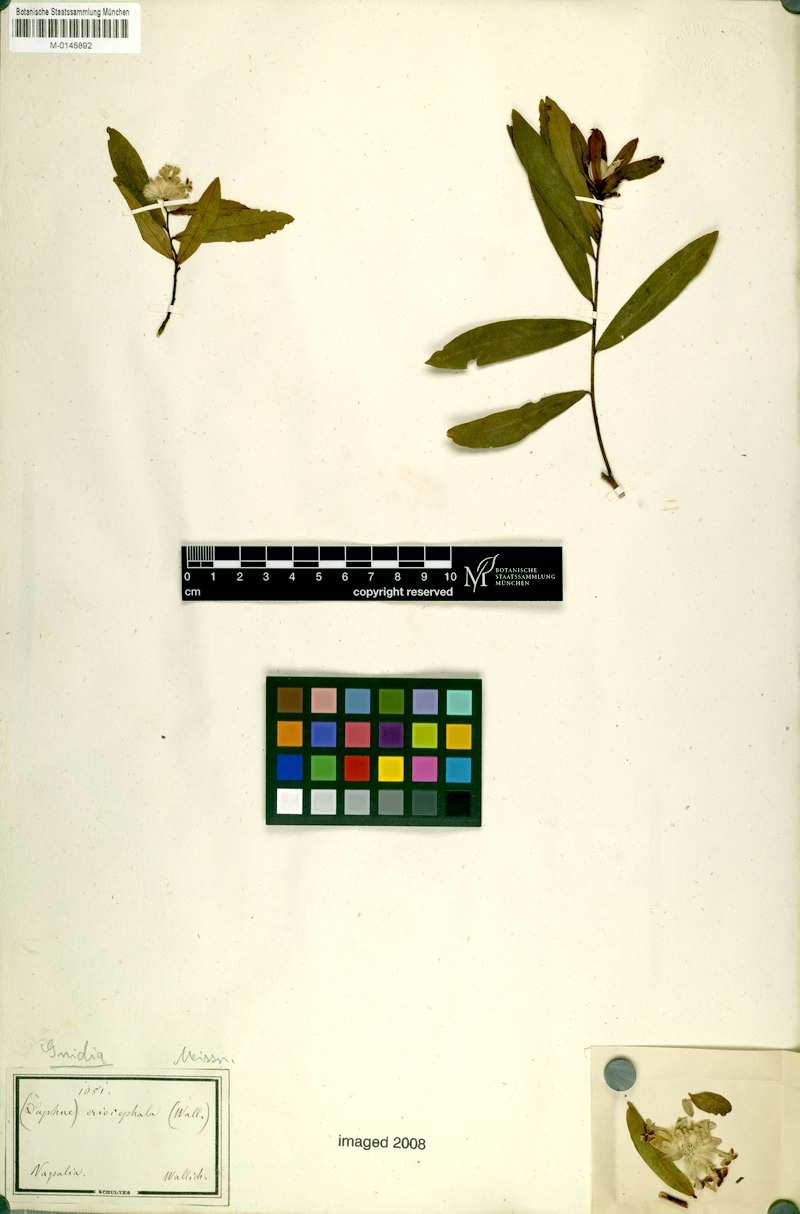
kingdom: Plantae
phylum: Tracheophyta
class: Magnoliopsida
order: Malvales
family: Thymelaeaceae
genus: Gnidia
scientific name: Gnidia glauca
